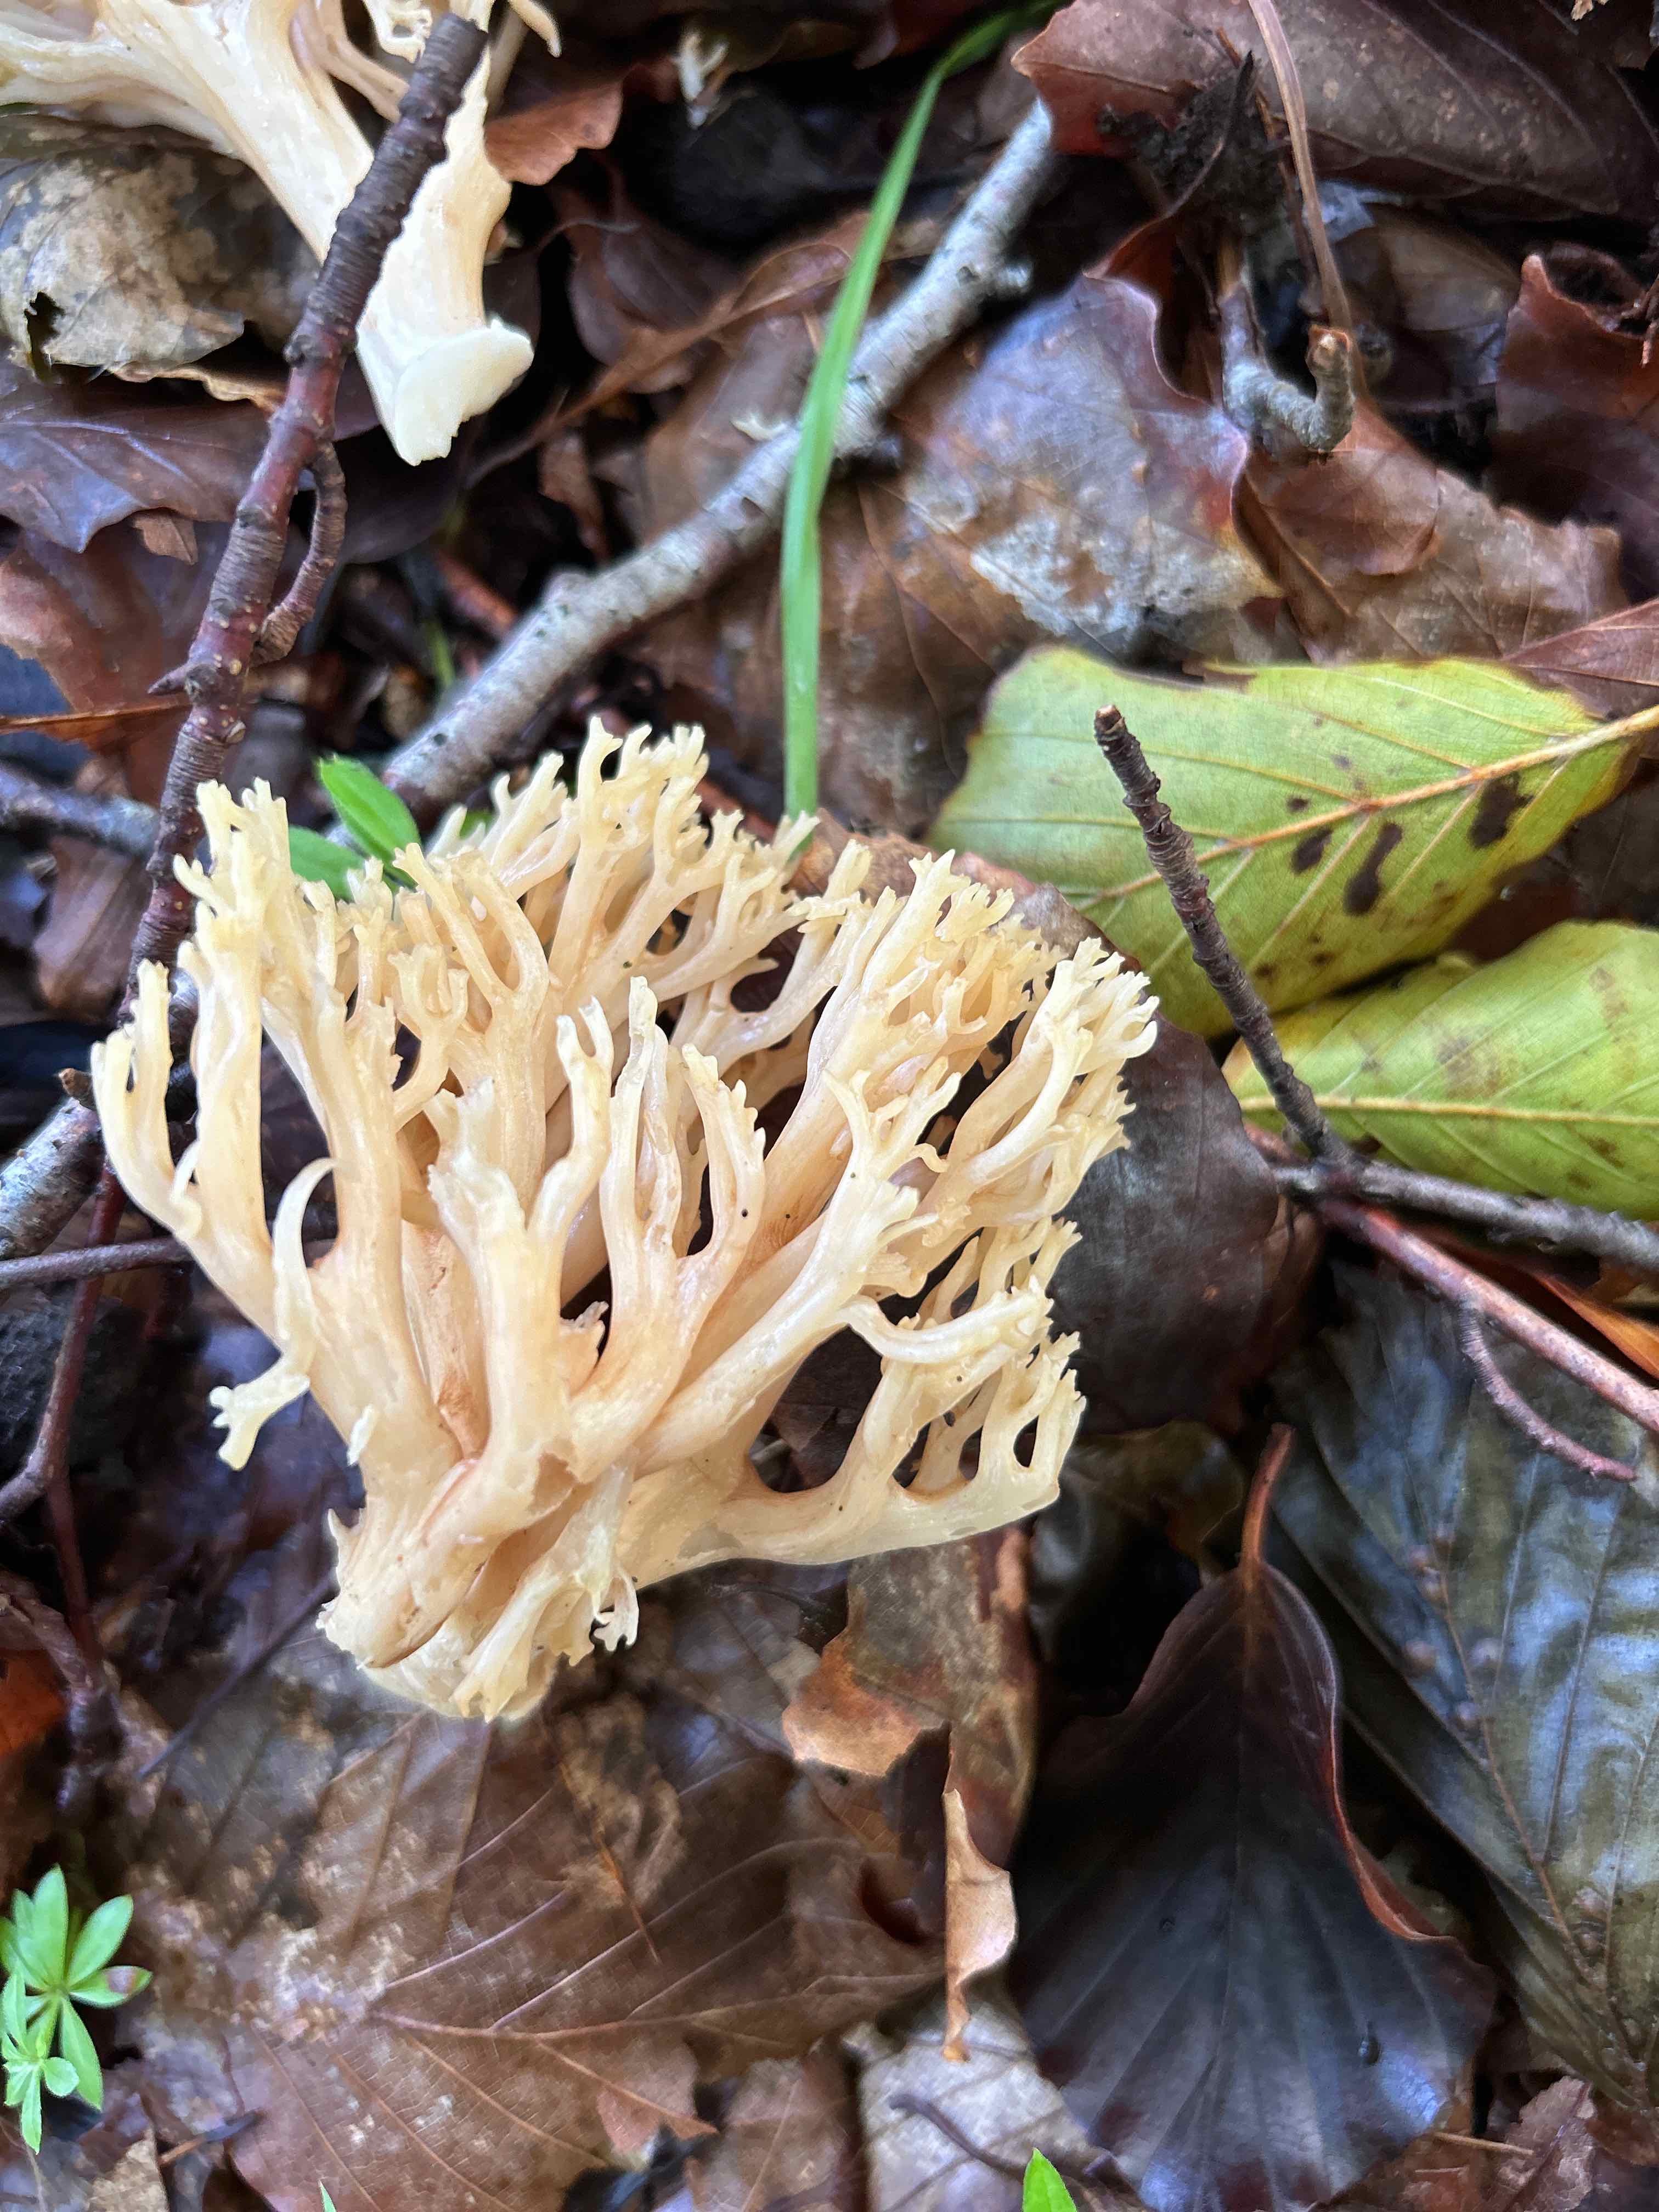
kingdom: Fungi
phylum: Basidiomycota
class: Agaricomycetes
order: Gomphales
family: Gomphaceae
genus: Ramaria
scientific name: Ramaria
